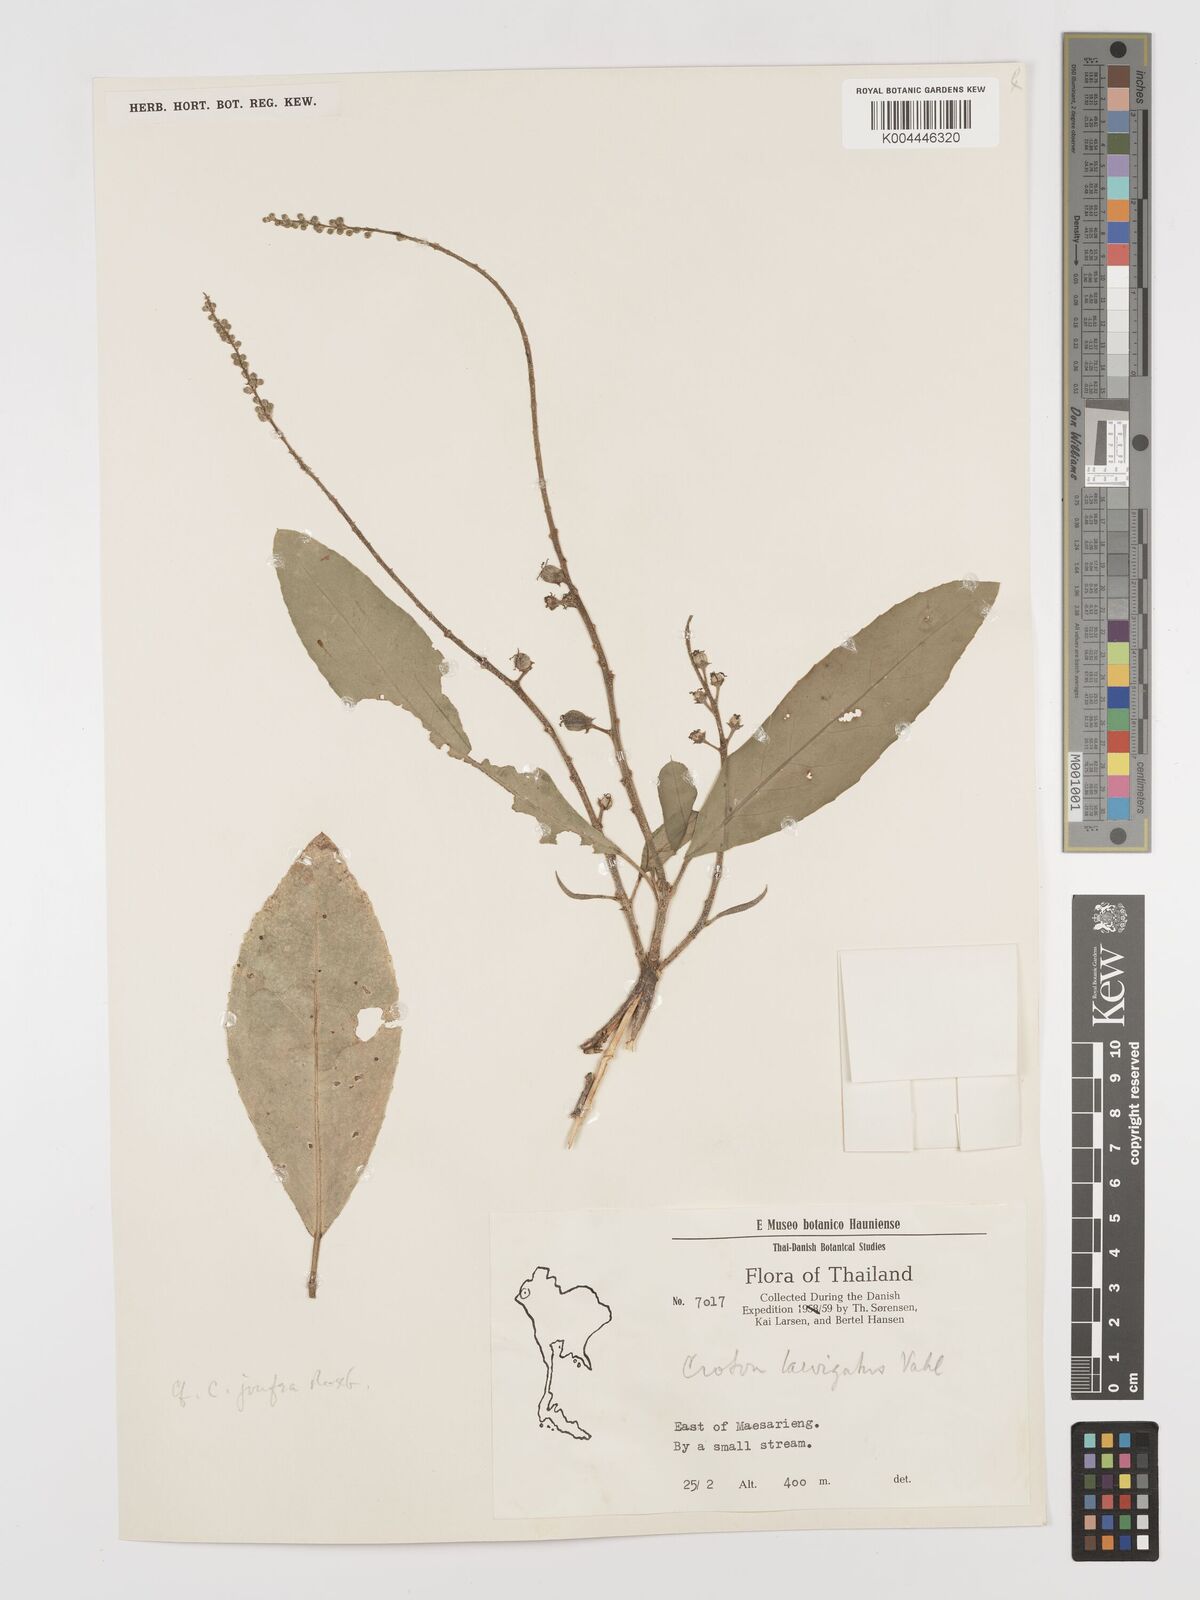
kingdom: Plantae
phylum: Tracheophyta
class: Magnoliopsida
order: Malpighiales
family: Euphorbiaceae
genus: Baliospermum
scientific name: Baliospermum solanifolium
